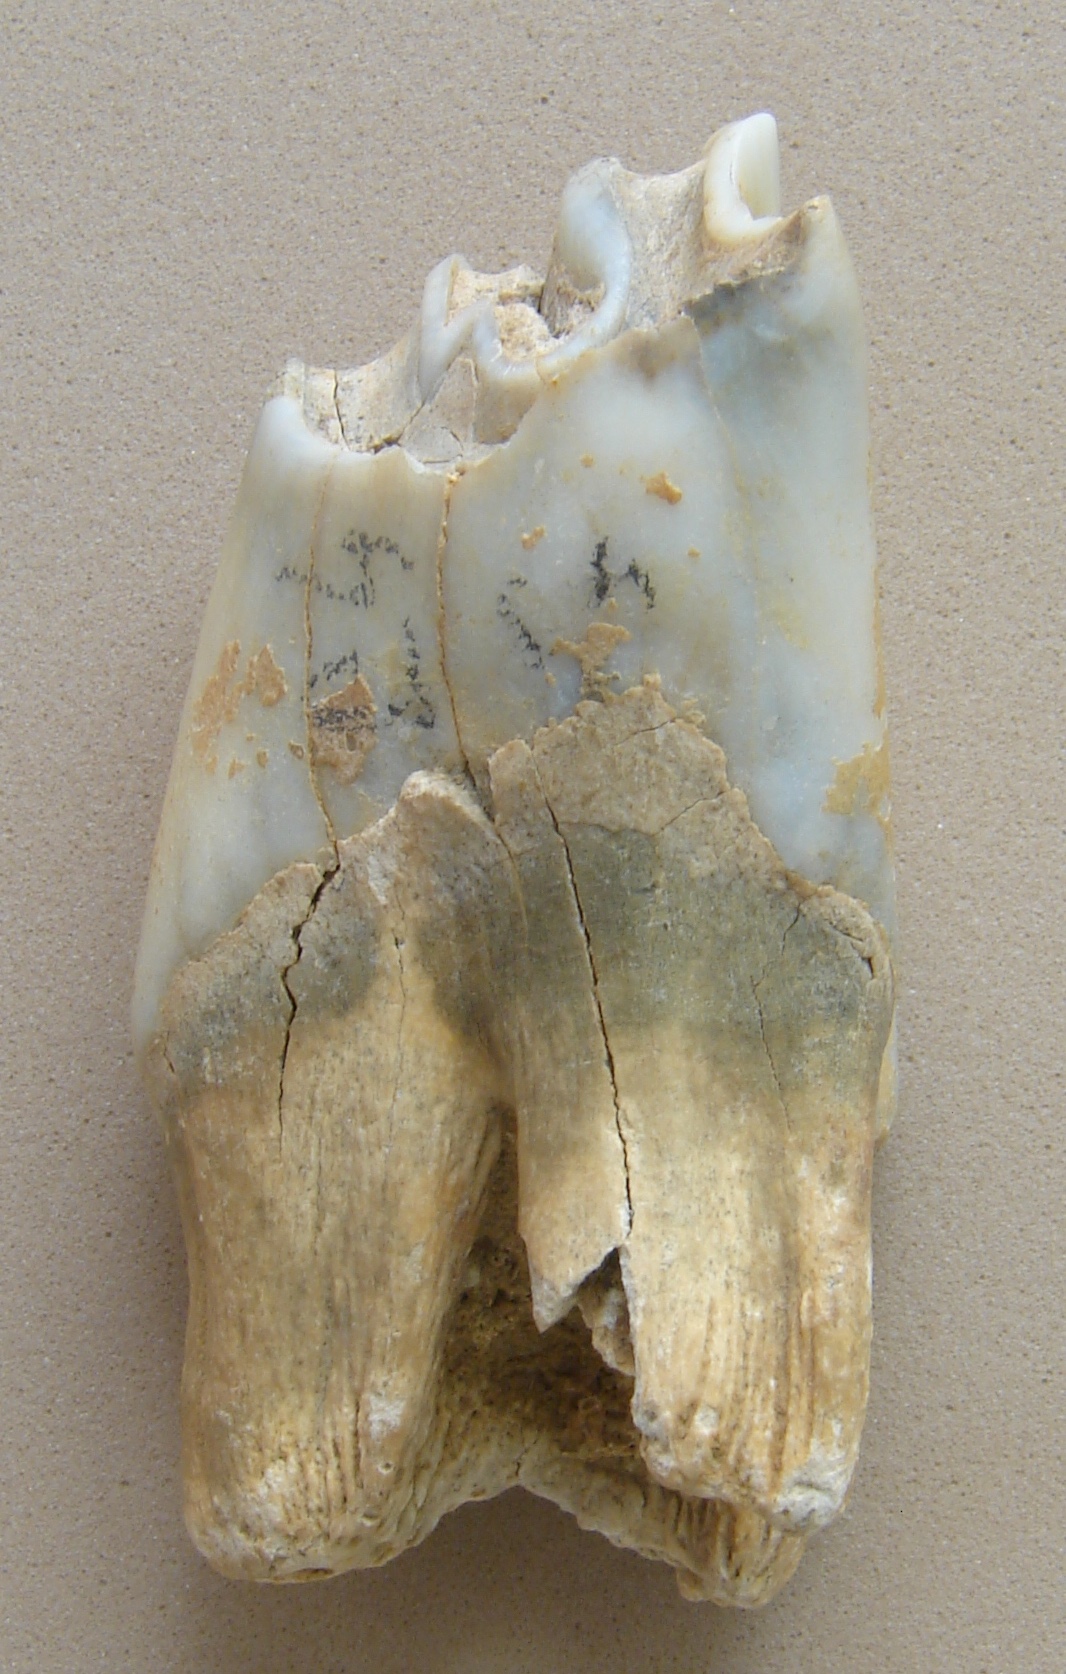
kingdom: Animalia
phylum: Chordata
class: Mammalia
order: Artiodactyla
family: Bovidae
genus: Bison
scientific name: Bison
